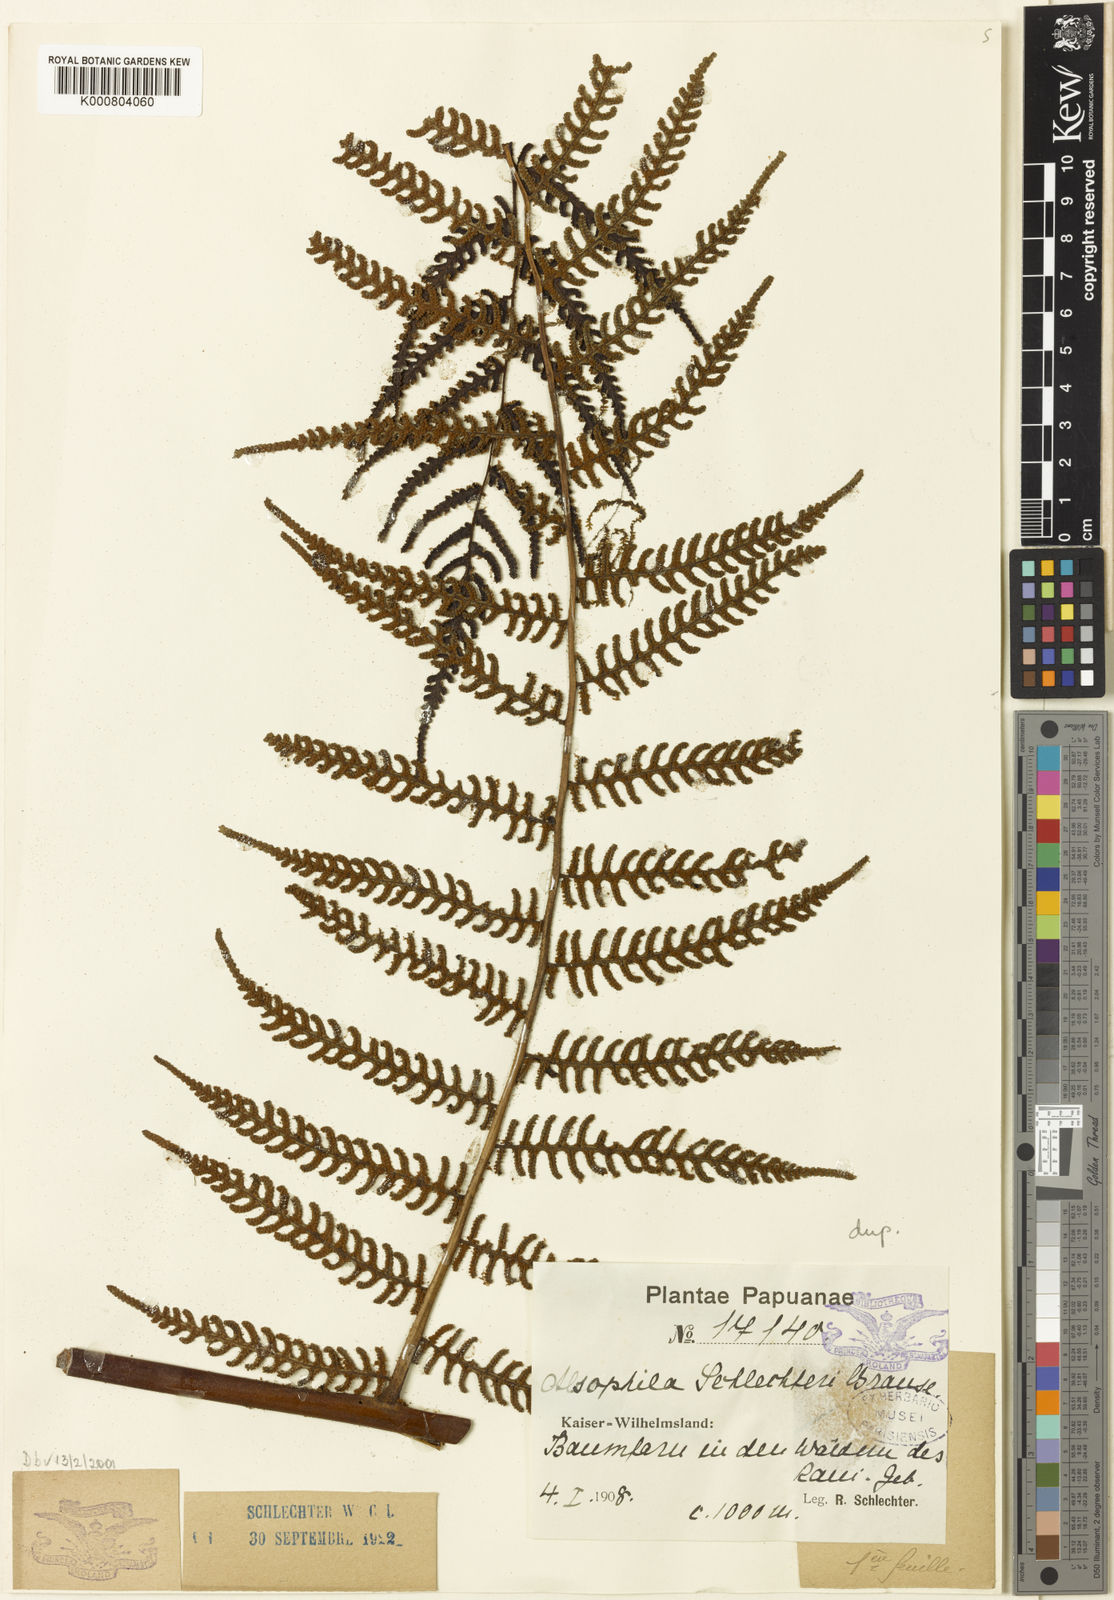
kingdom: Plantae
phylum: Tracheophyta
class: Polypodiopsida
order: Cyatheales
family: Cyatheaceae
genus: Gymnosphaera
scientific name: Gymnosphaera schlechteri
